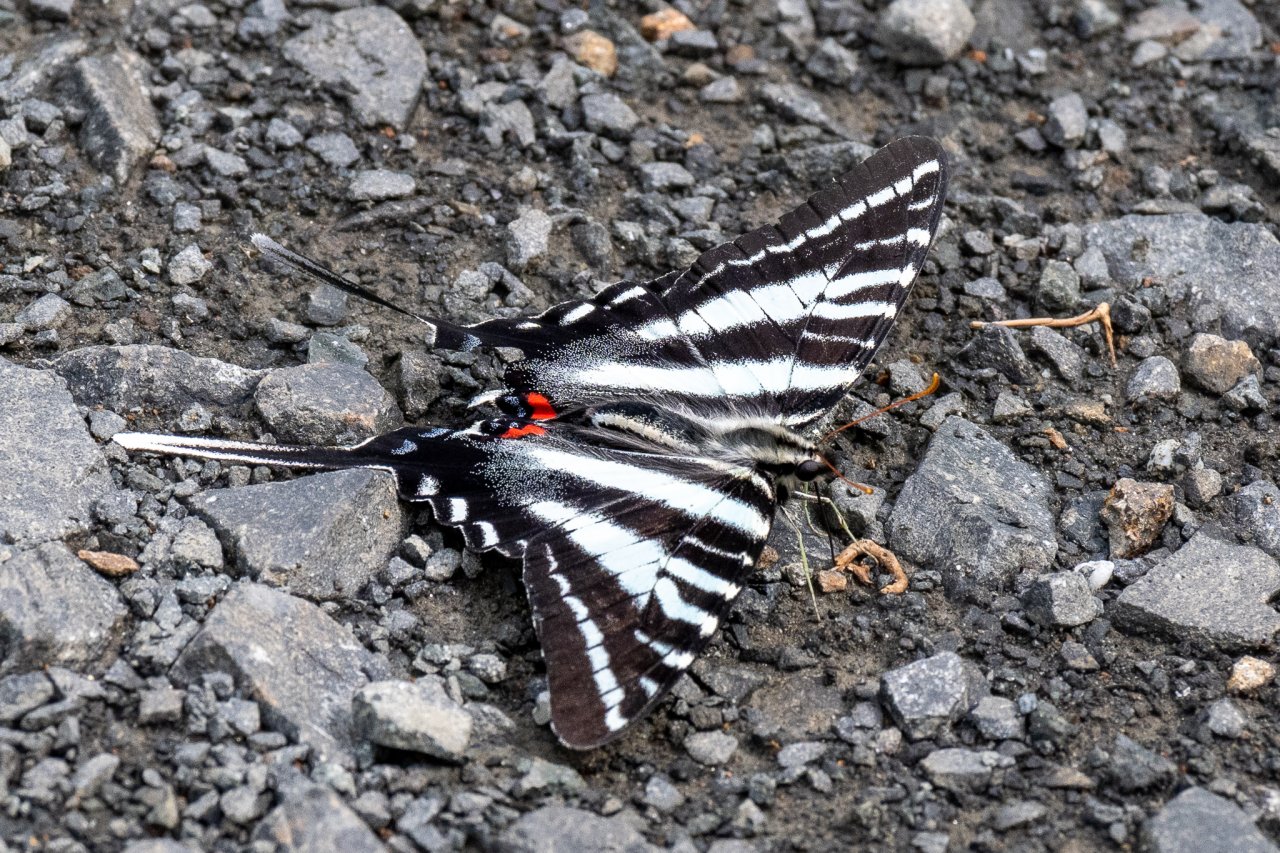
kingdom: Animalia
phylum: Arthropoda
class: Insecta
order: Lepidoptera
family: Papilionidae
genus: Protographium
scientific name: Protographium marcellus
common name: Zebra Swallowtail
